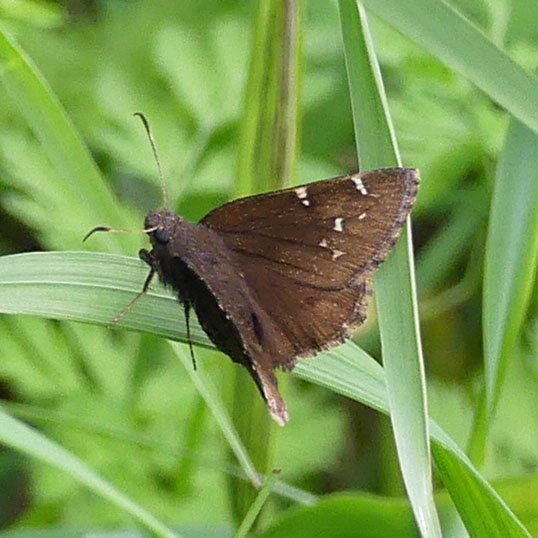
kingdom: Animalia
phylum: Arthropoda
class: Insecta
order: Lepidoptera
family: Hesperiidae
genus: Autochton
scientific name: Autochton
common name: Northern Cloudywing
